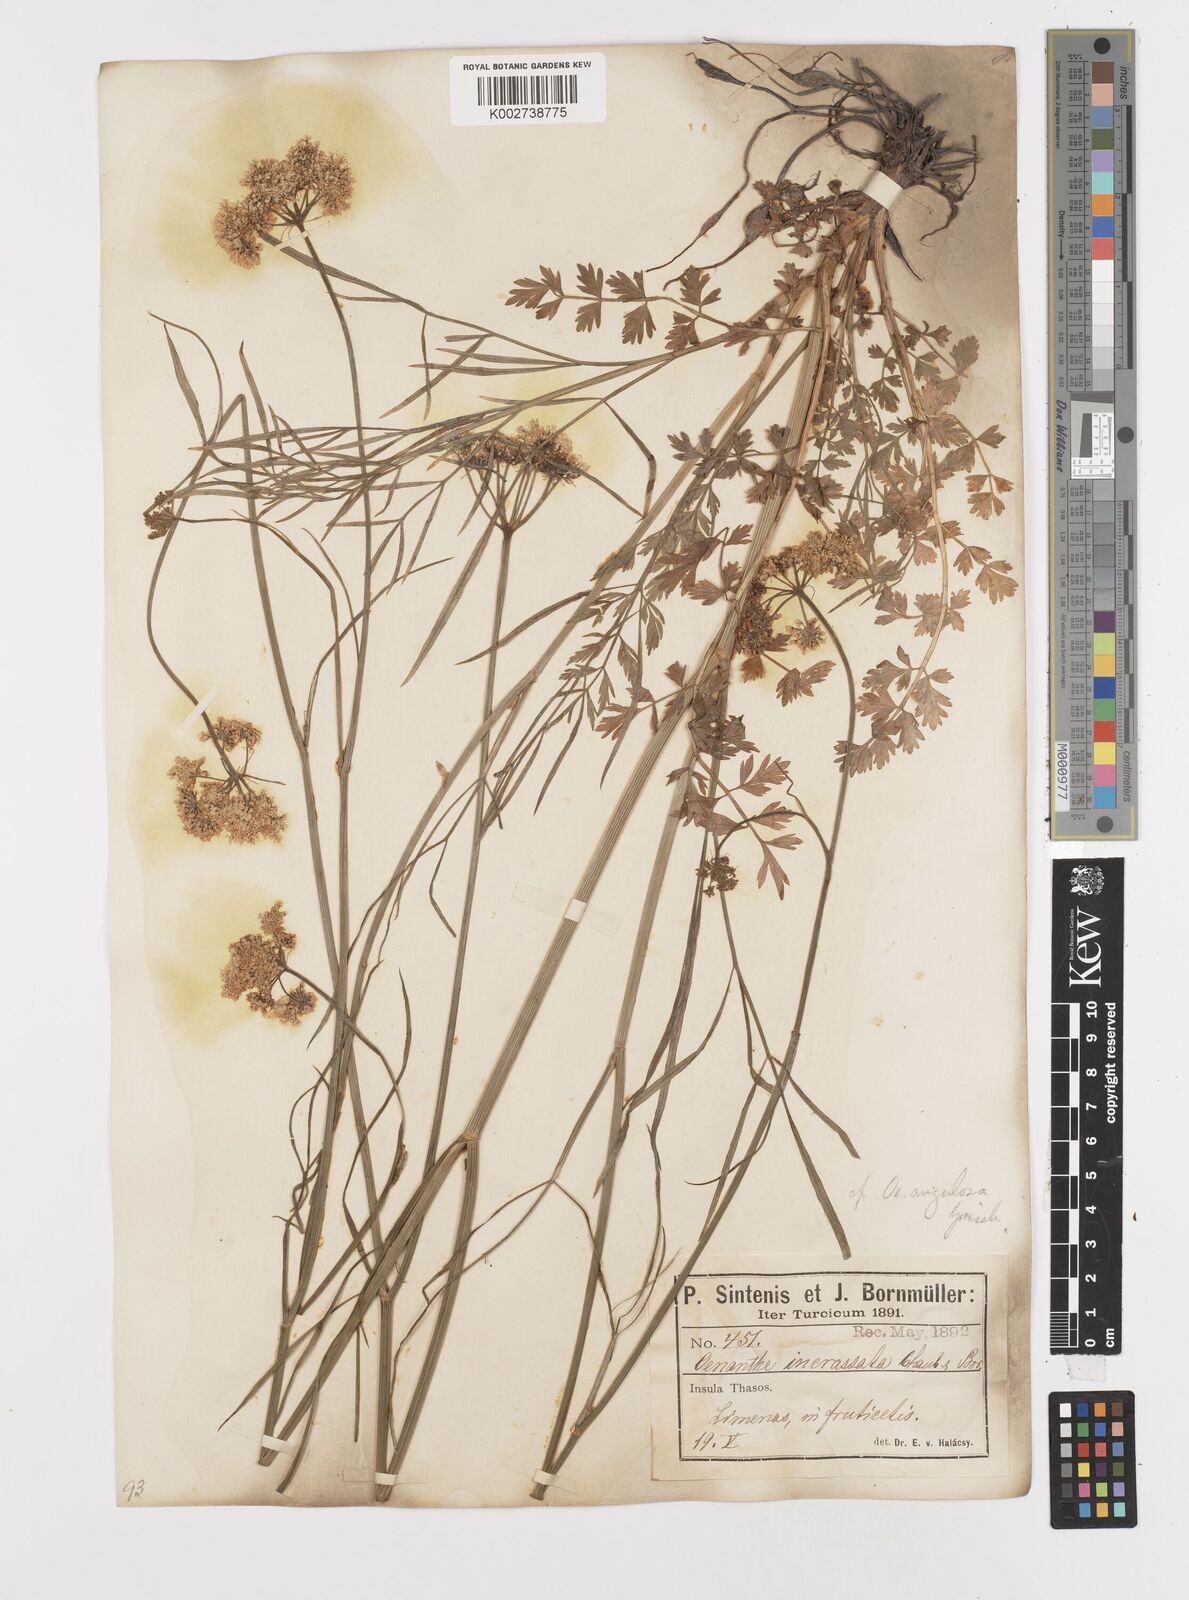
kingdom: Plantae
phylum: Tracheophyta
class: Magnoliopsida
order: Apiales
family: Apiaceae
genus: Oenanthe
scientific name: Oenanthe pimpinelloides
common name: Corky-fruited water-dropwort
